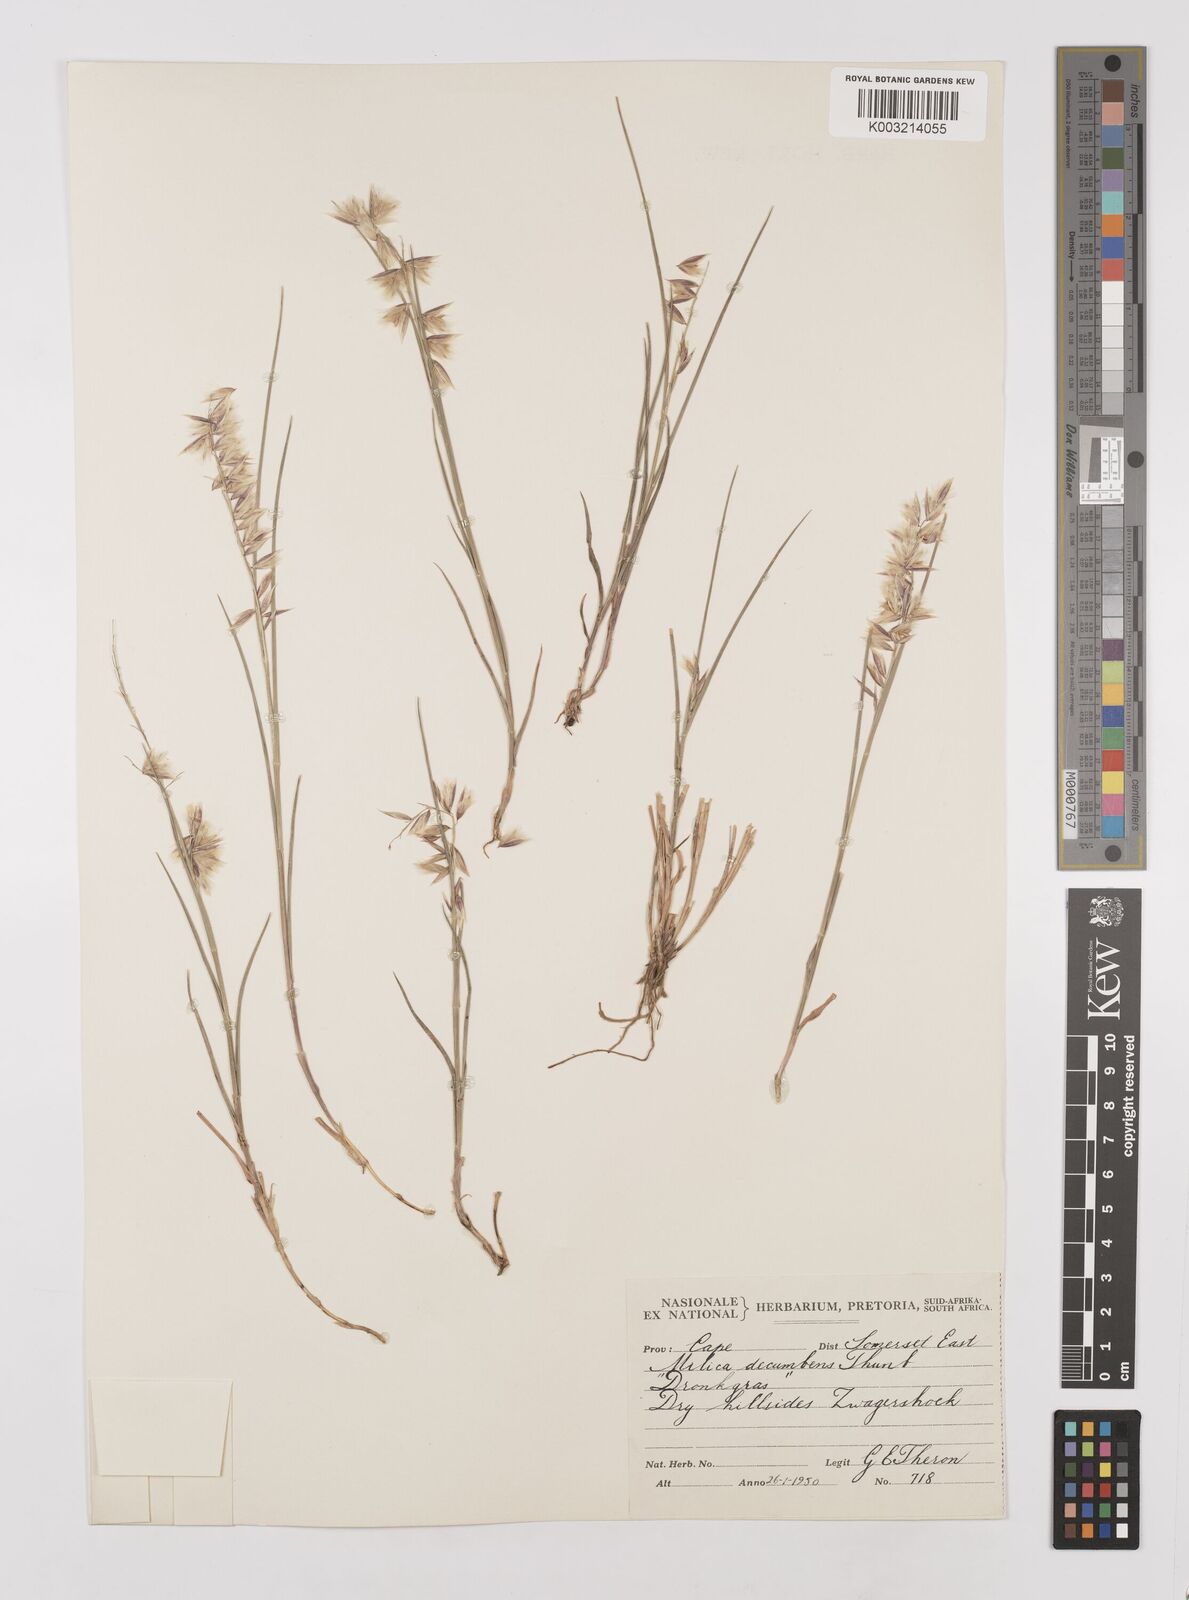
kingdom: Plantae
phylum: Tracheophyta
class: Liliopsida
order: Poales
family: Poaceae
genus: Melica
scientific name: Melica dendroides
